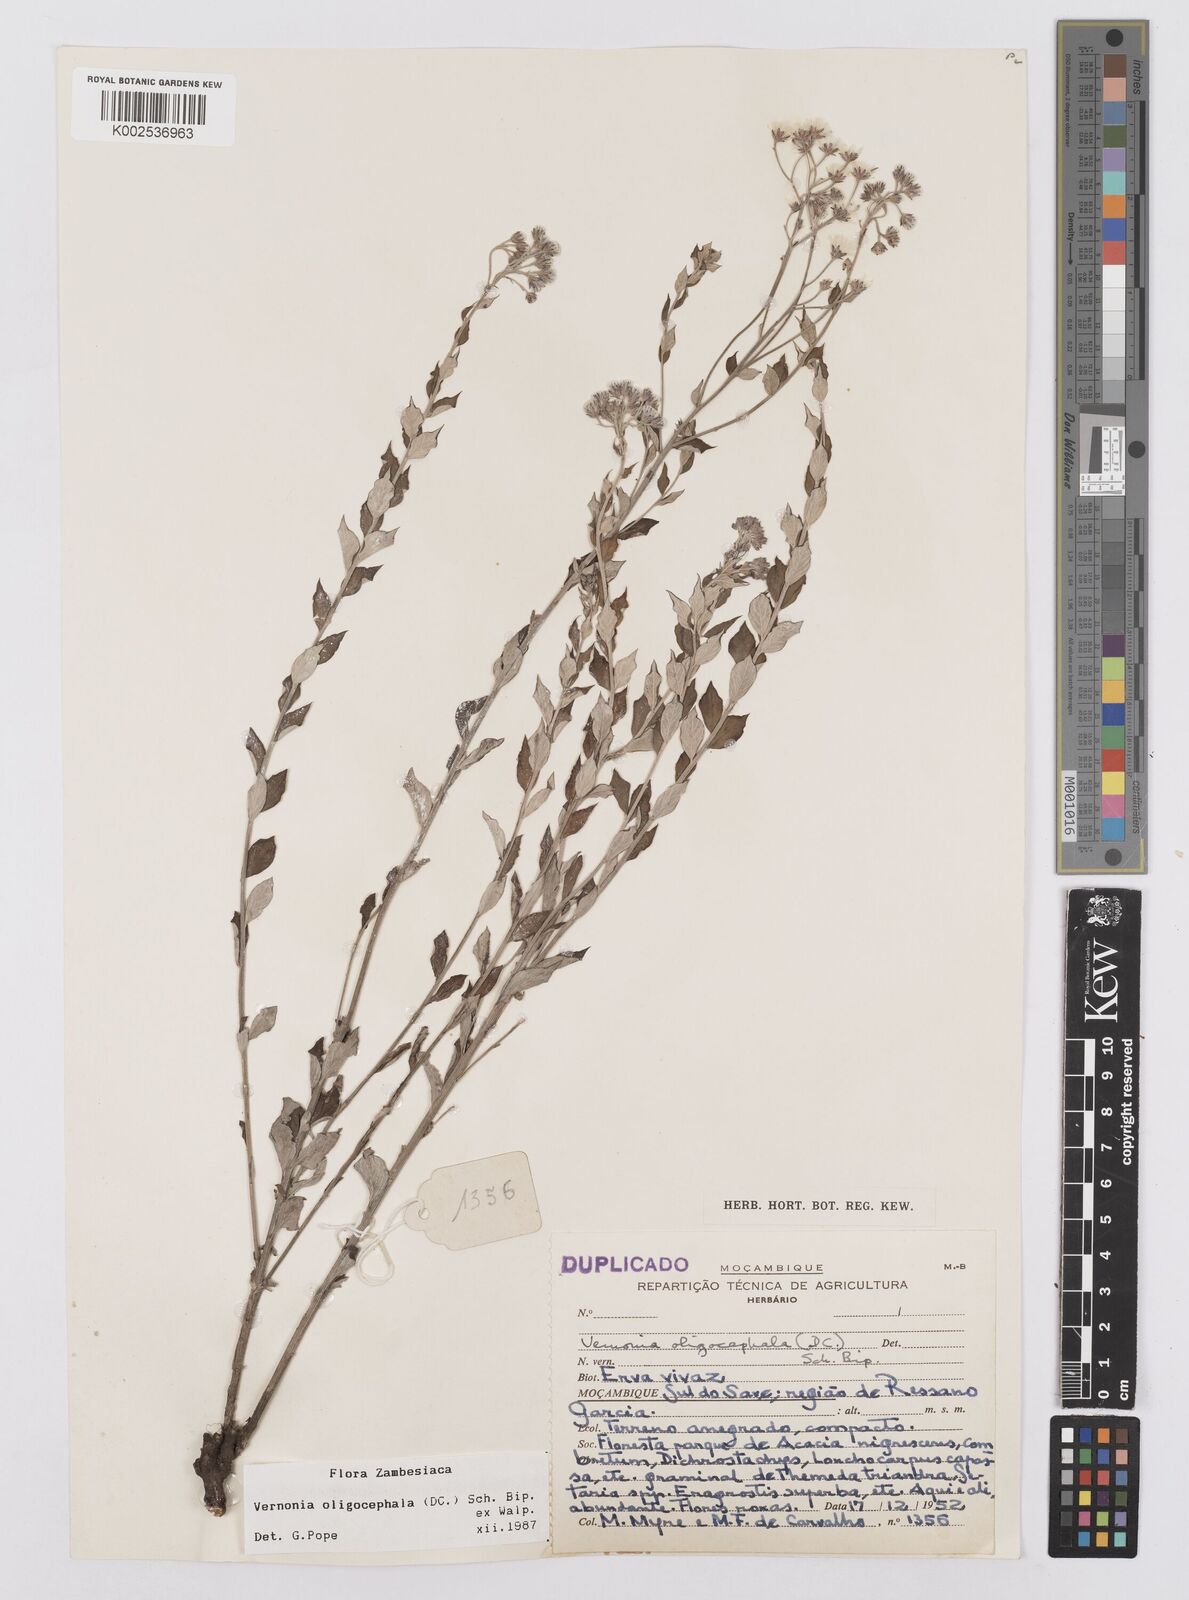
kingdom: Plantae
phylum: Tracheophyta
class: Magnoliopsida
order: Asterales
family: Asteraceae
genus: Hilliardiella
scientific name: Hilliardiella oligocephala
